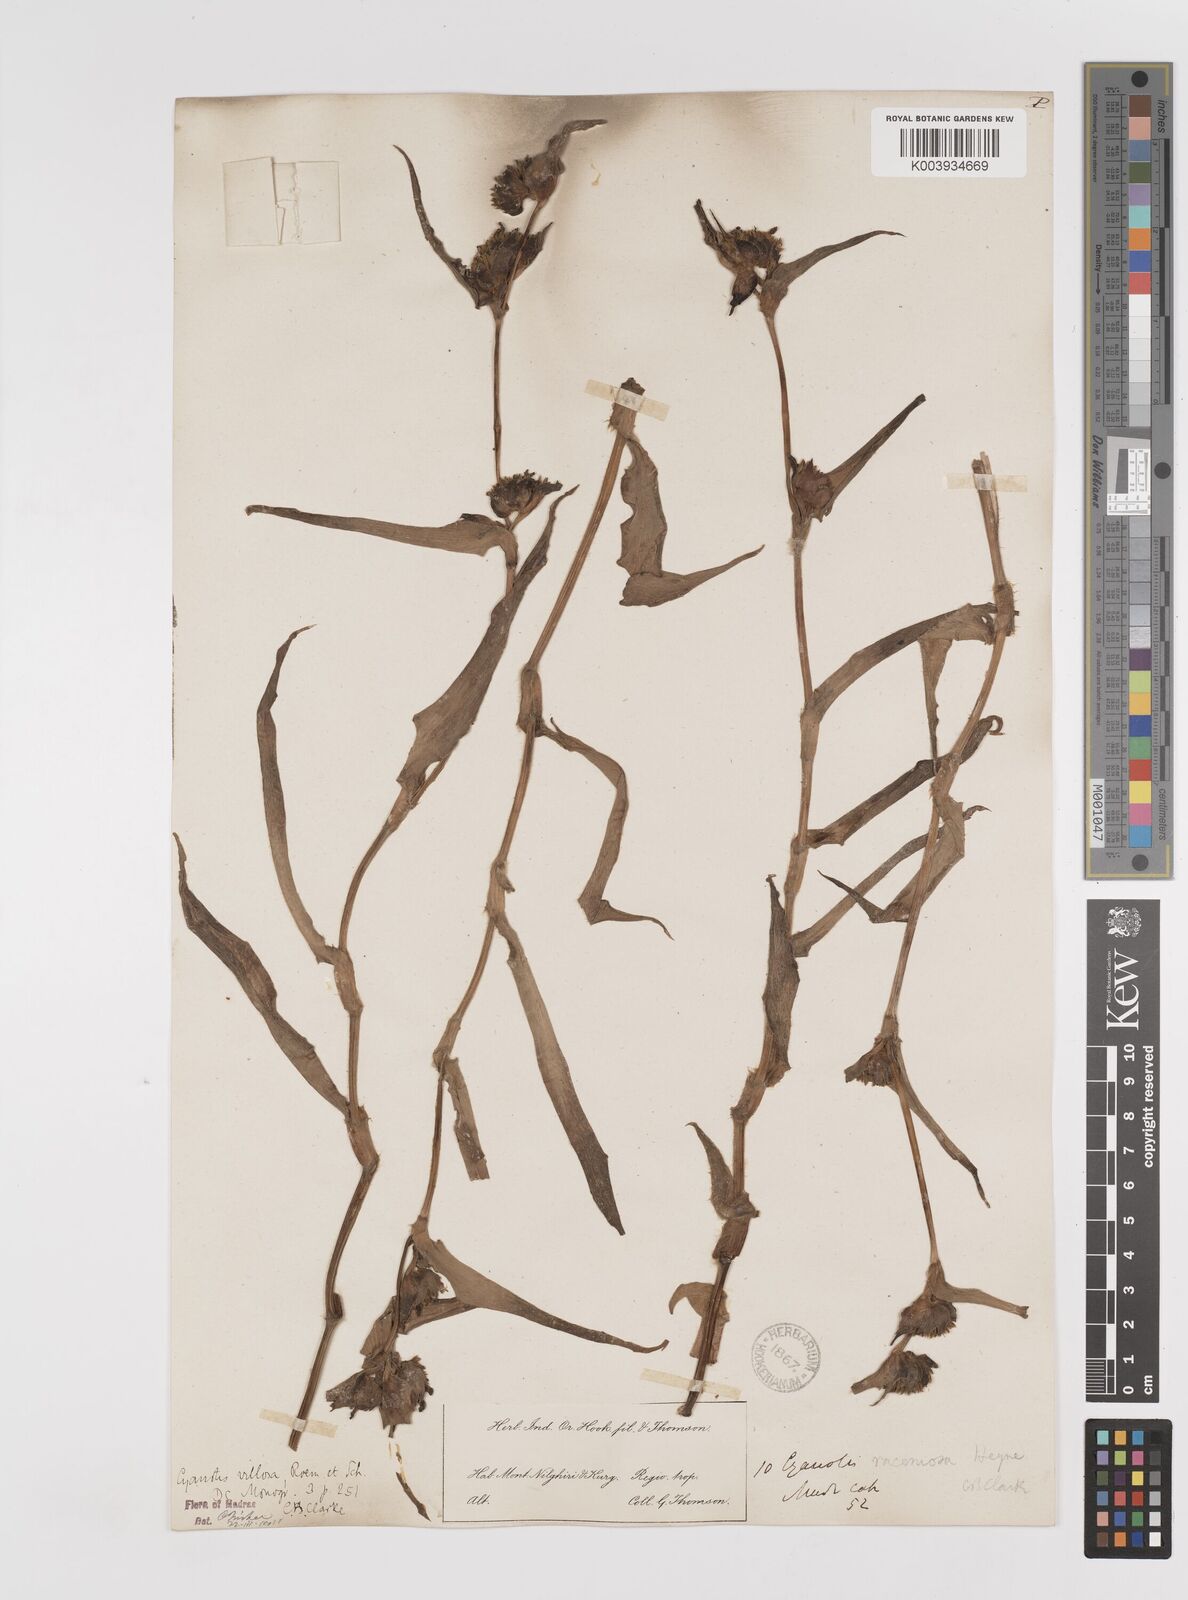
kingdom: Plantae
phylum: Tracheophyta
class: Liliopsida
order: Commelinales
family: Commelinaceae
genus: Cyanotis
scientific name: Cyanotis villosa
